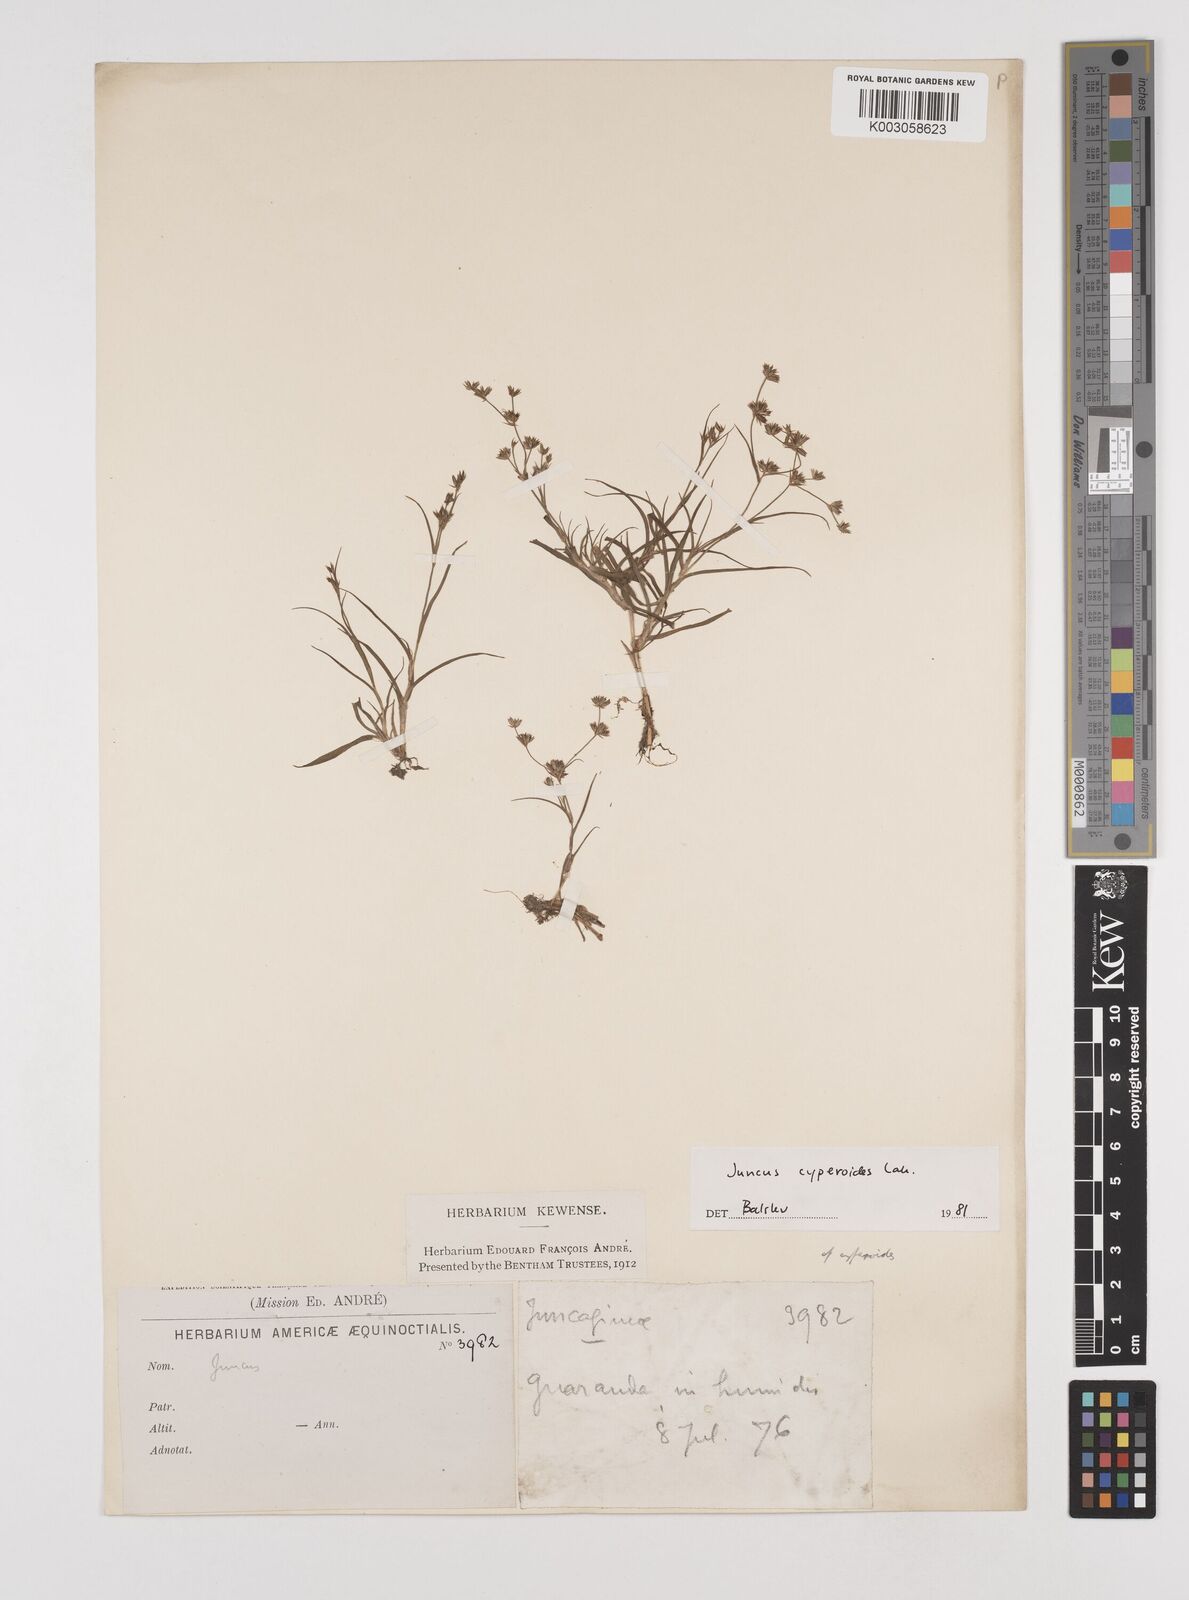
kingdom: Plantae
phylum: Tracheophyta
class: Liliopsida
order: Poales
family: Juncaceae
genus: Juncus
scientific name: Juncus cyperoides
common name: Forbestown rush
